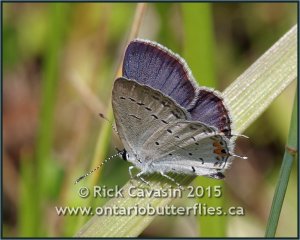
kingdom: Animalia
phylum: Arthropoda
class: Insecta
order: Lepidoptera
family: Lycaenidae
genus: Elkalyce
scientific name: Elkalyce comyntas
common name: Eastern Tailed-Blue
